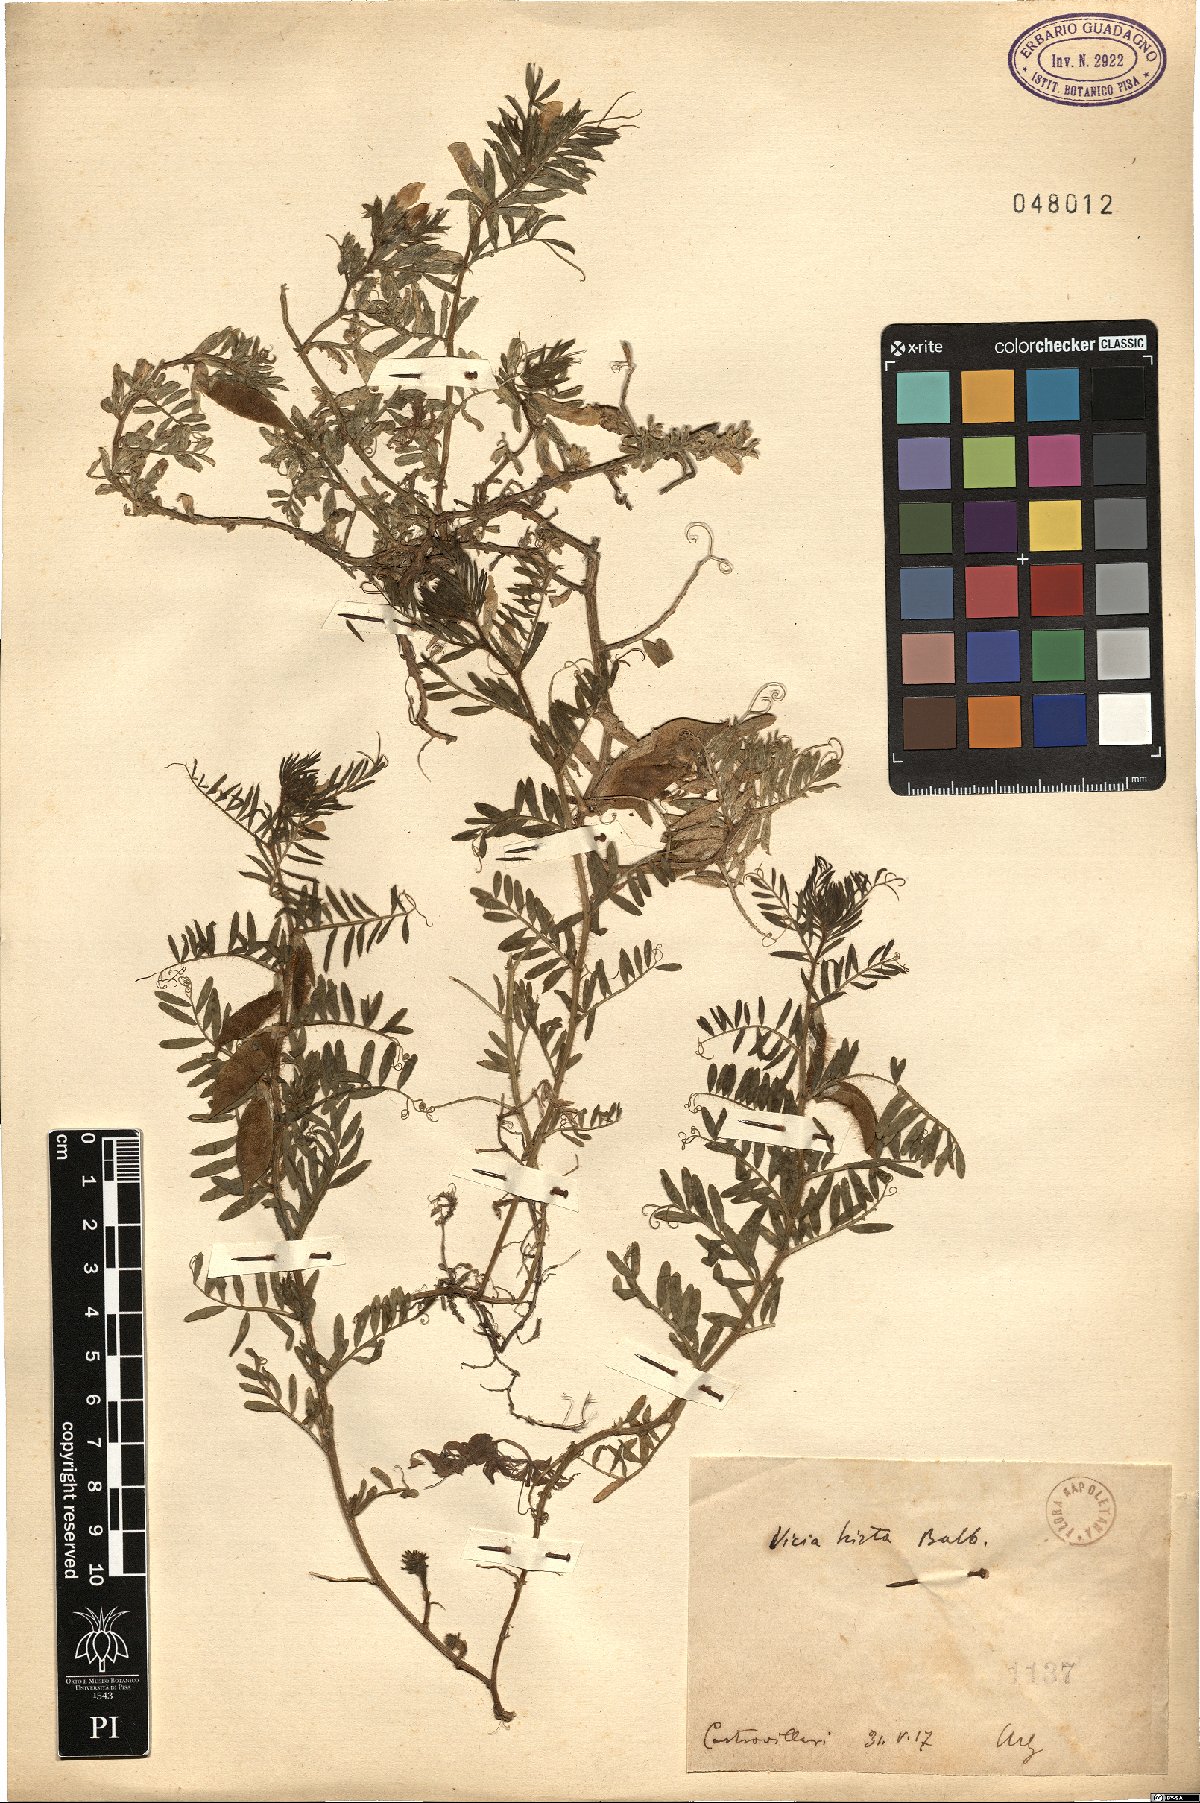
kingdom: Plantae
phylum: Tracheophyta
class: Magnoliopsida
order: Fabales
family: Fabaceae
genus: Vicia
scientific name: Vicia lutea
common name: Smooth yellow vetch
